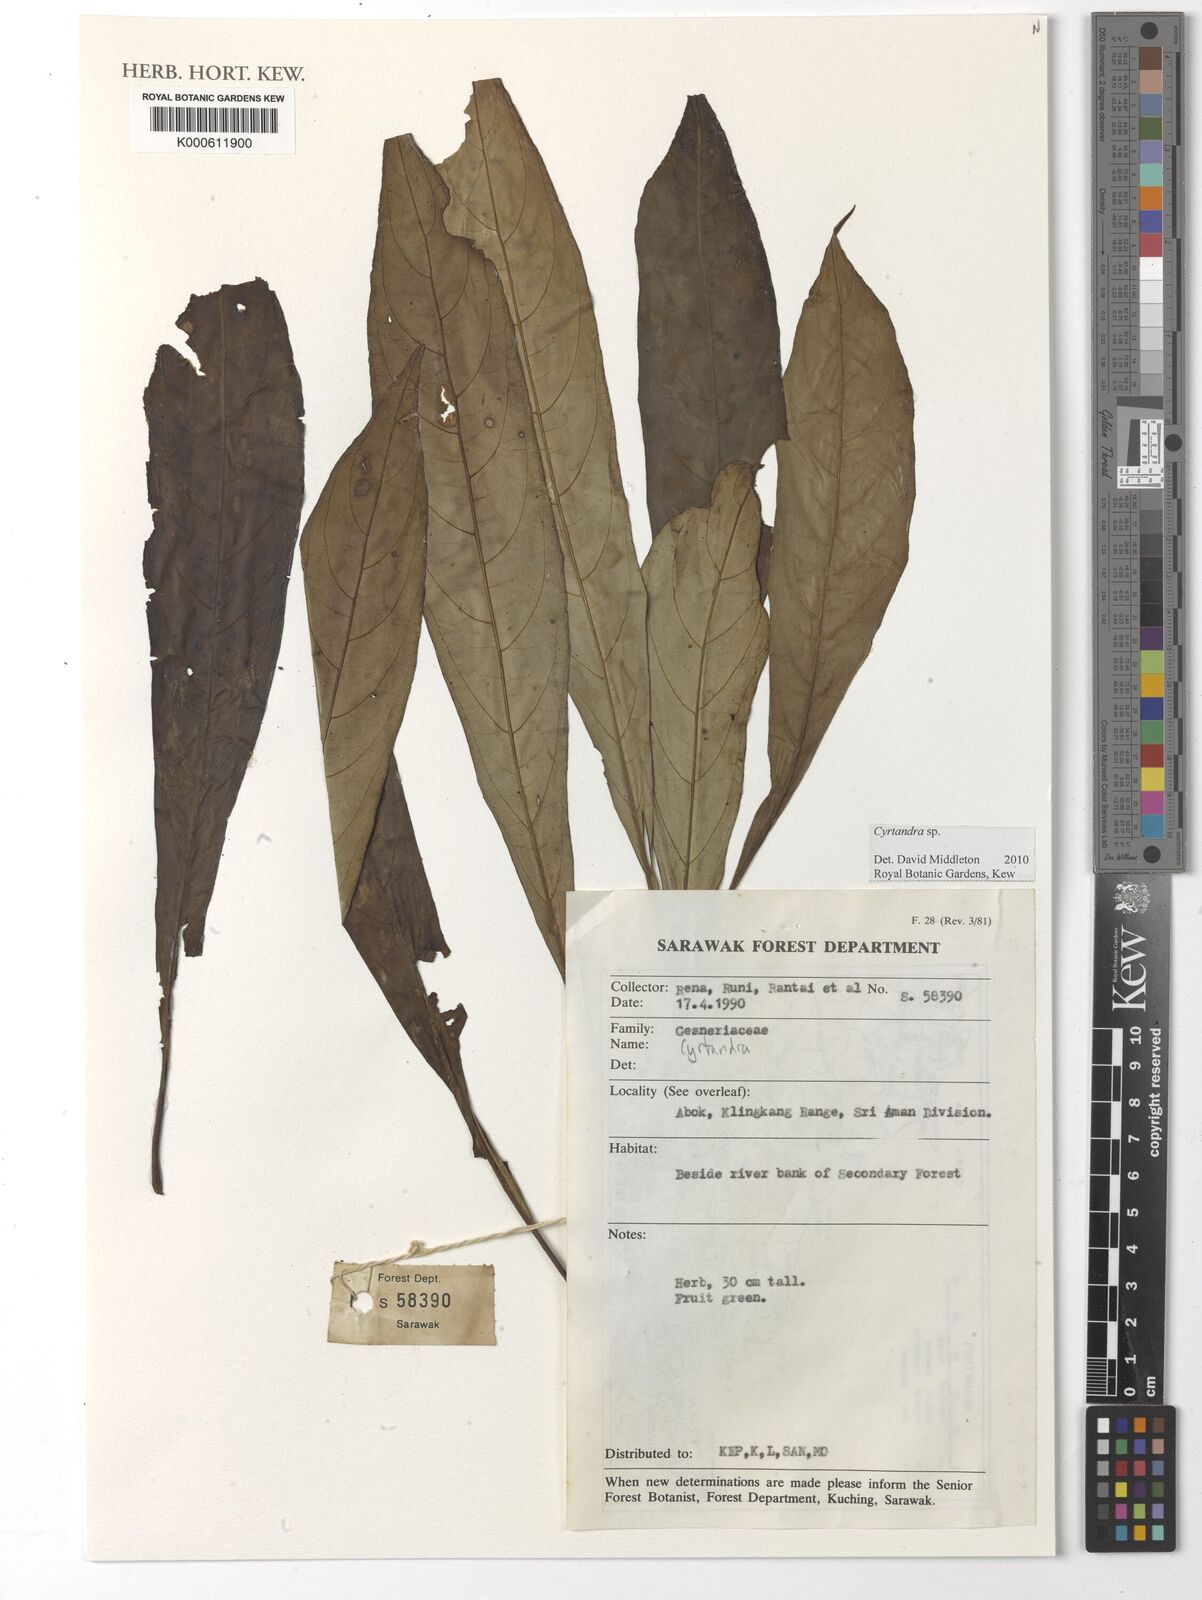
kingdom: Plantae
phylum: Tracheophyta
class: Magnoliopsida
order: Lamiales
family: Gesneriaceae
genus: Cyrtandra
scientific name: Cyrtandra
